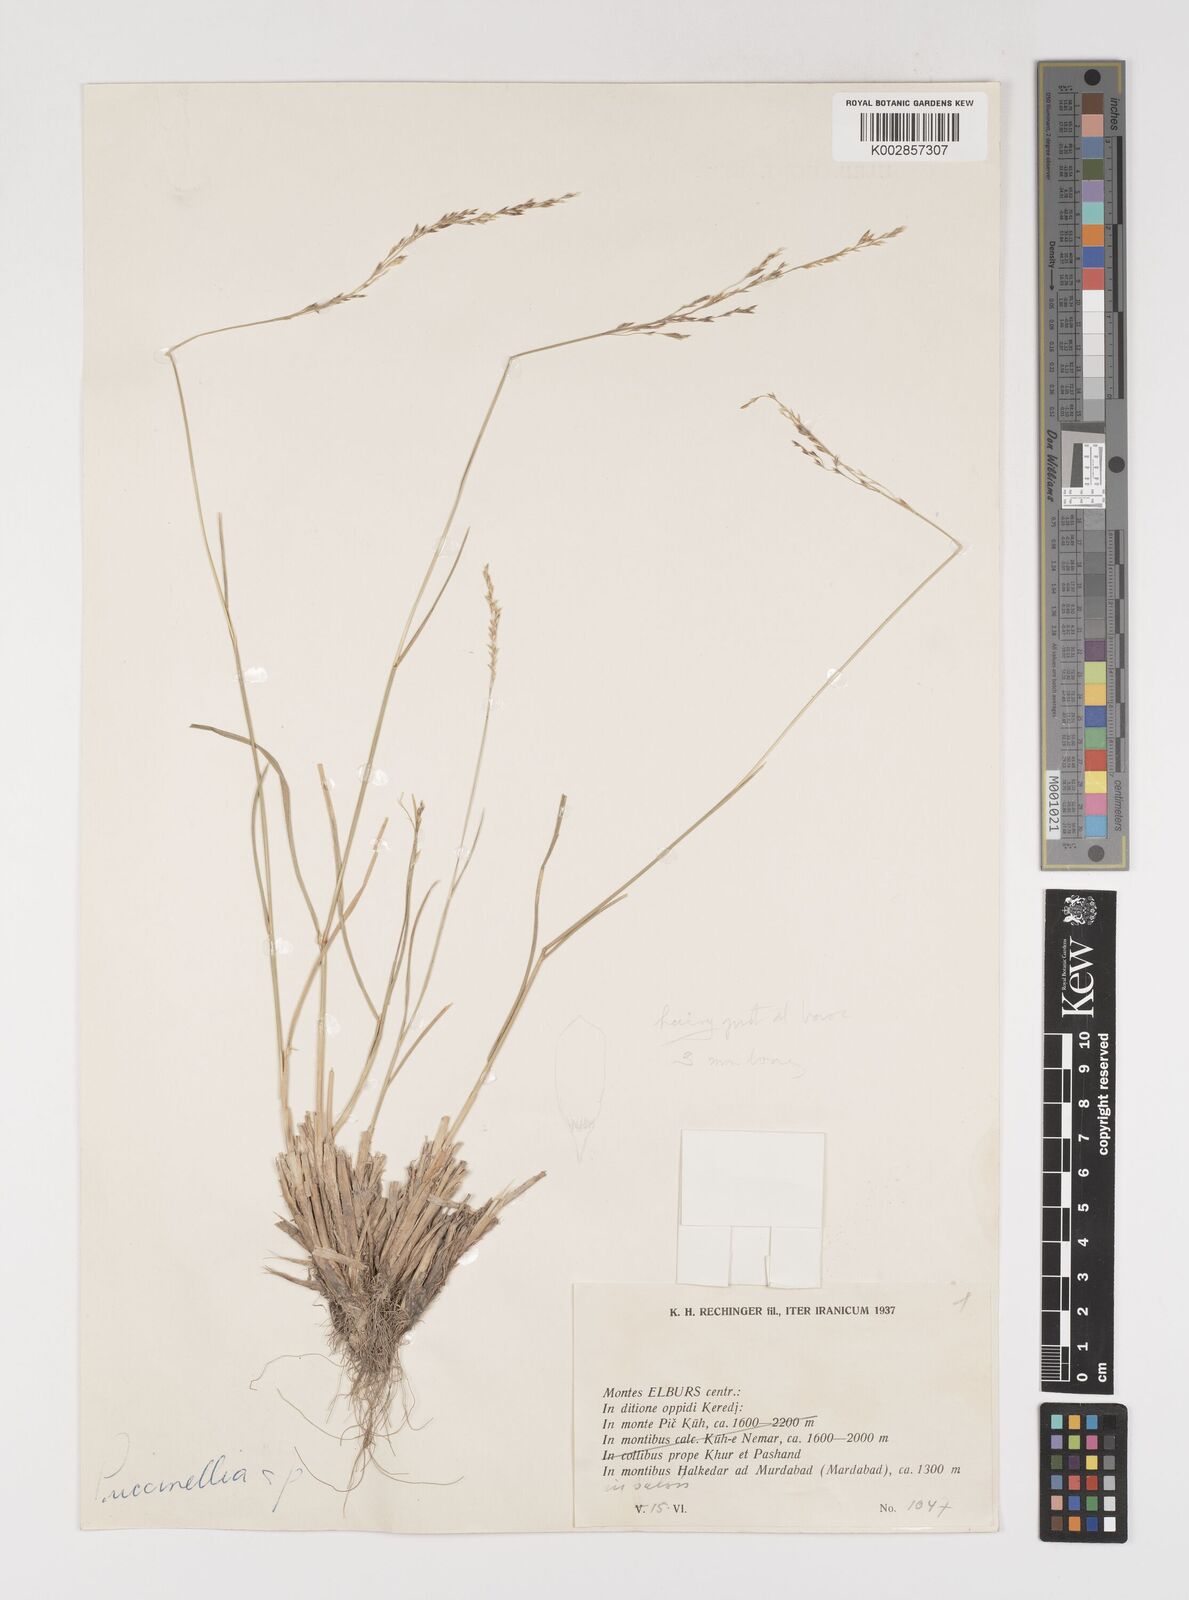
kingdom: Plantae
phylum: Tracheophyta
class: Liliopsida
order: Poales
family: Poaceae
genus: Puccinellia
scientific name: Puccinellia
